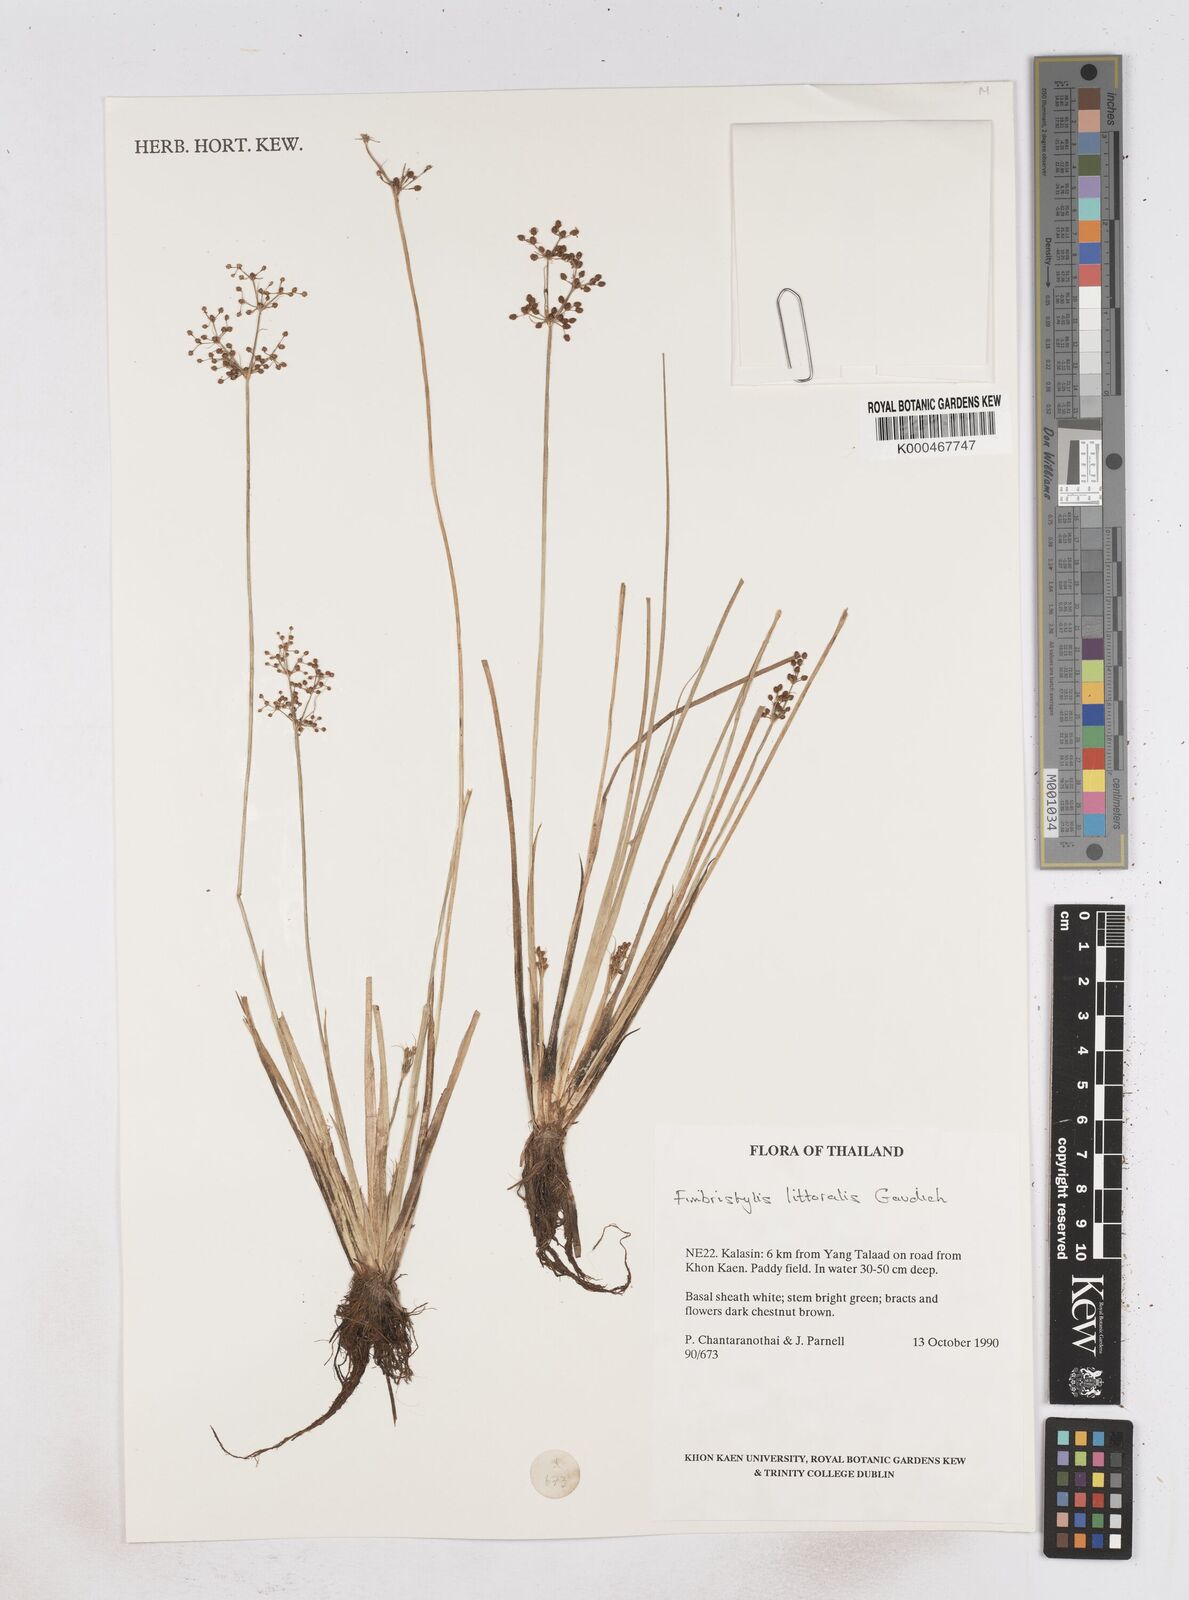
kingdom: Plantae
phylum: Tracheophyta
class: Liliopsida
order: Poales
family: Cyperaceae
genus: Fimbristylis
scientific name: Fimbristylis quinquangularis
